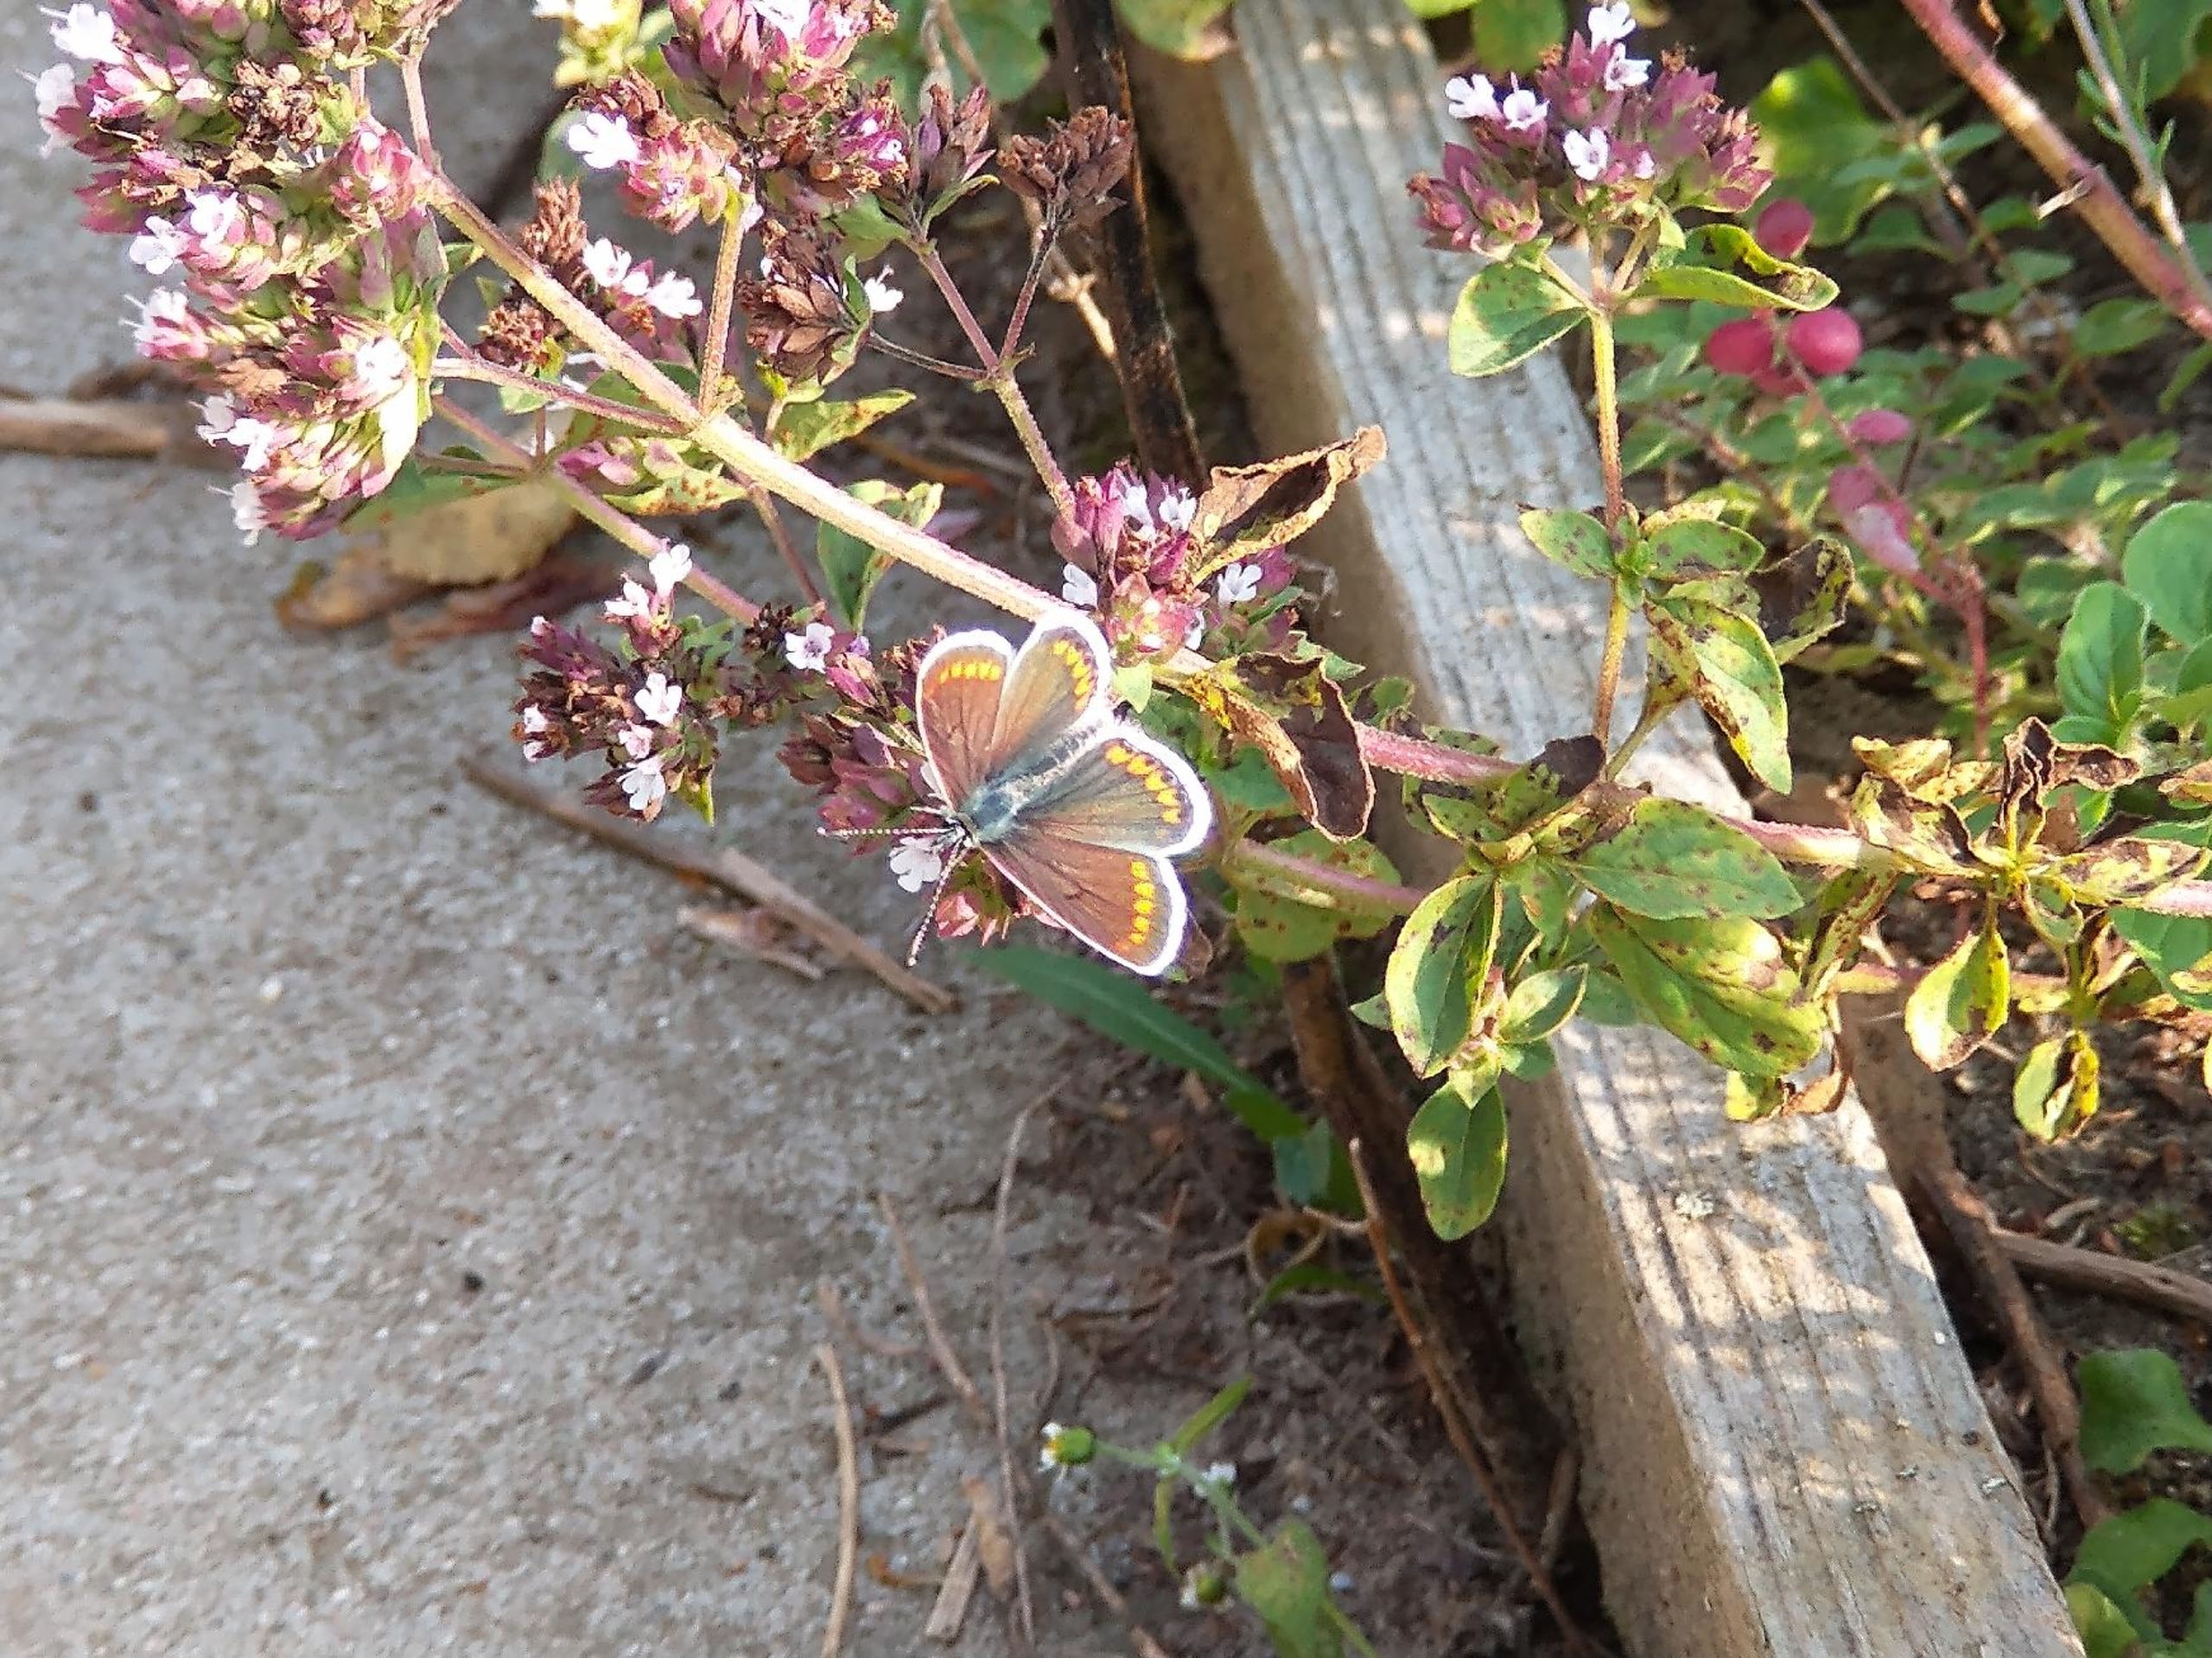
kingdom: Animalia
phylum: Arthropoda
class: Insecta
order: Lepidoptera
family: Lycaenidae
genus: Aricia
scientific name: Aricia agestis
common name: Rødplettet blåfugl
